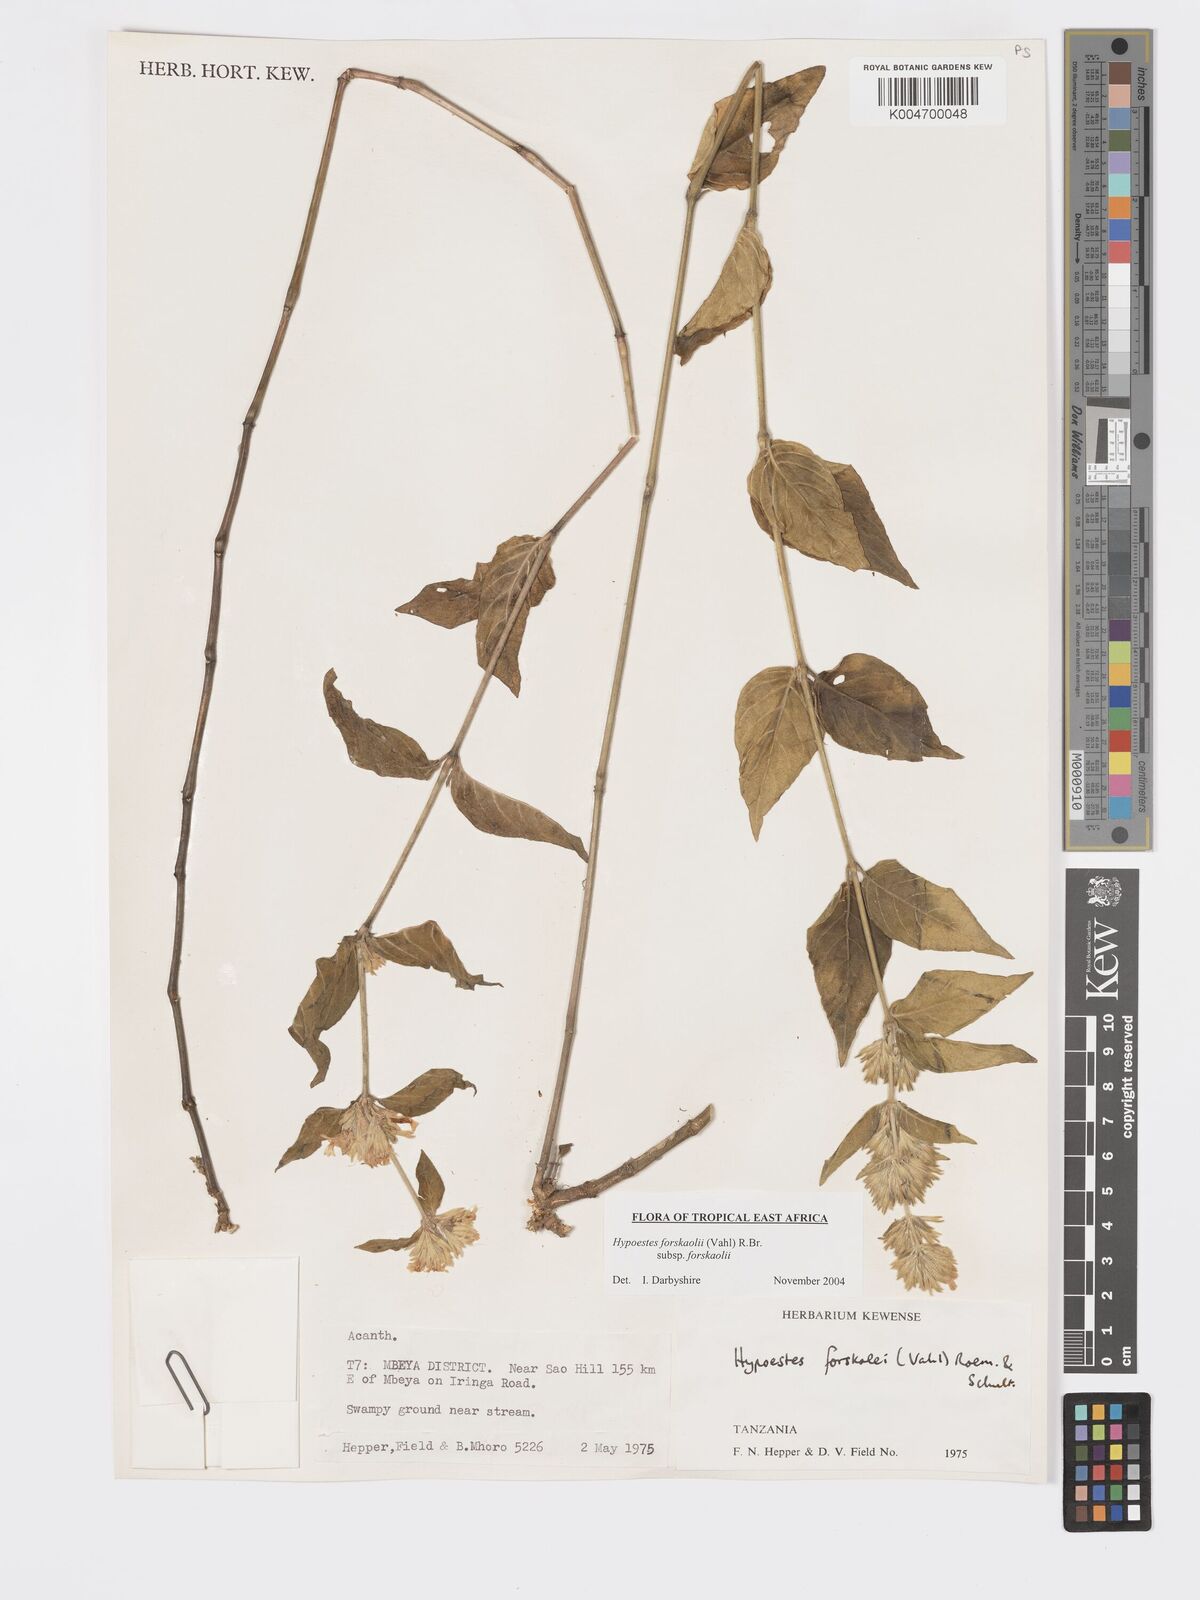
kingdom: Plantae
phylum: Tracheophyta
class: Magnoliopsida
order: Lamiales
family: Acanthaceae
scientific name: Acanthaceae
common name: Acanthaceae
